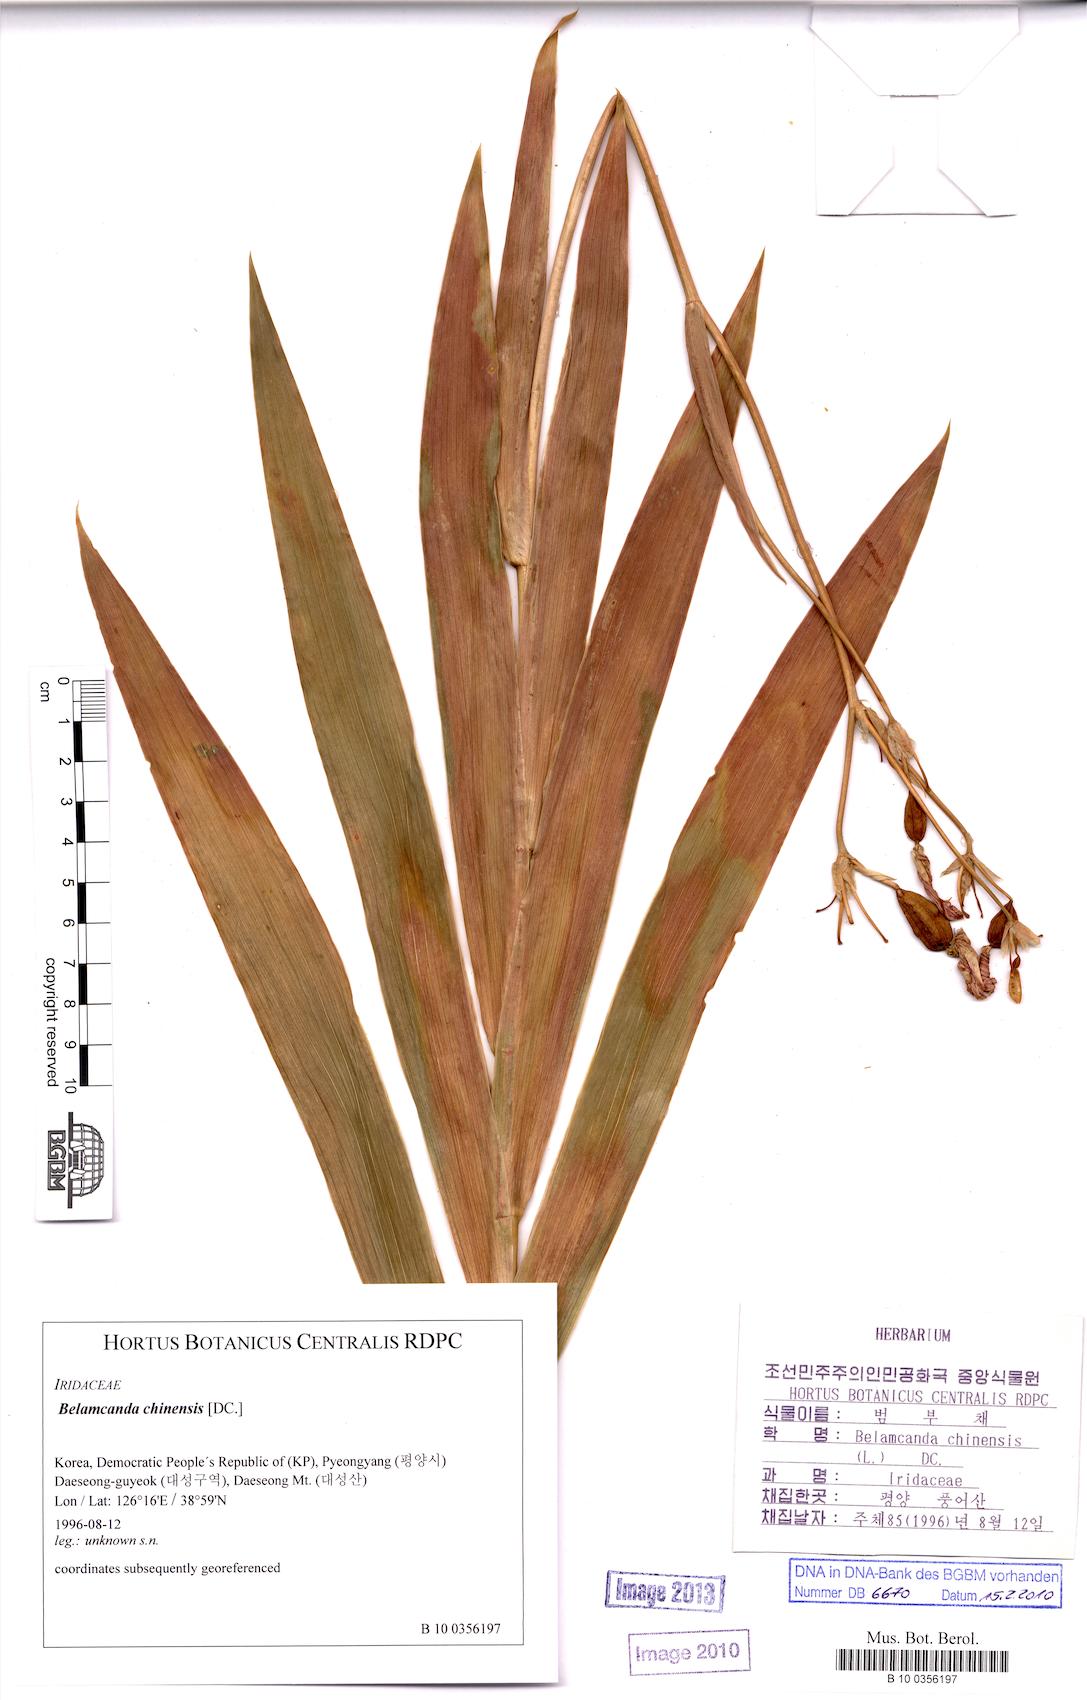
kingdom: Plantae
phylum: Tracheophyta
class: Liliopsida
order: Asparagales
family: Iridaceae
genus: Iris
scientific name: Iris domestica
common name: Belamcanda
